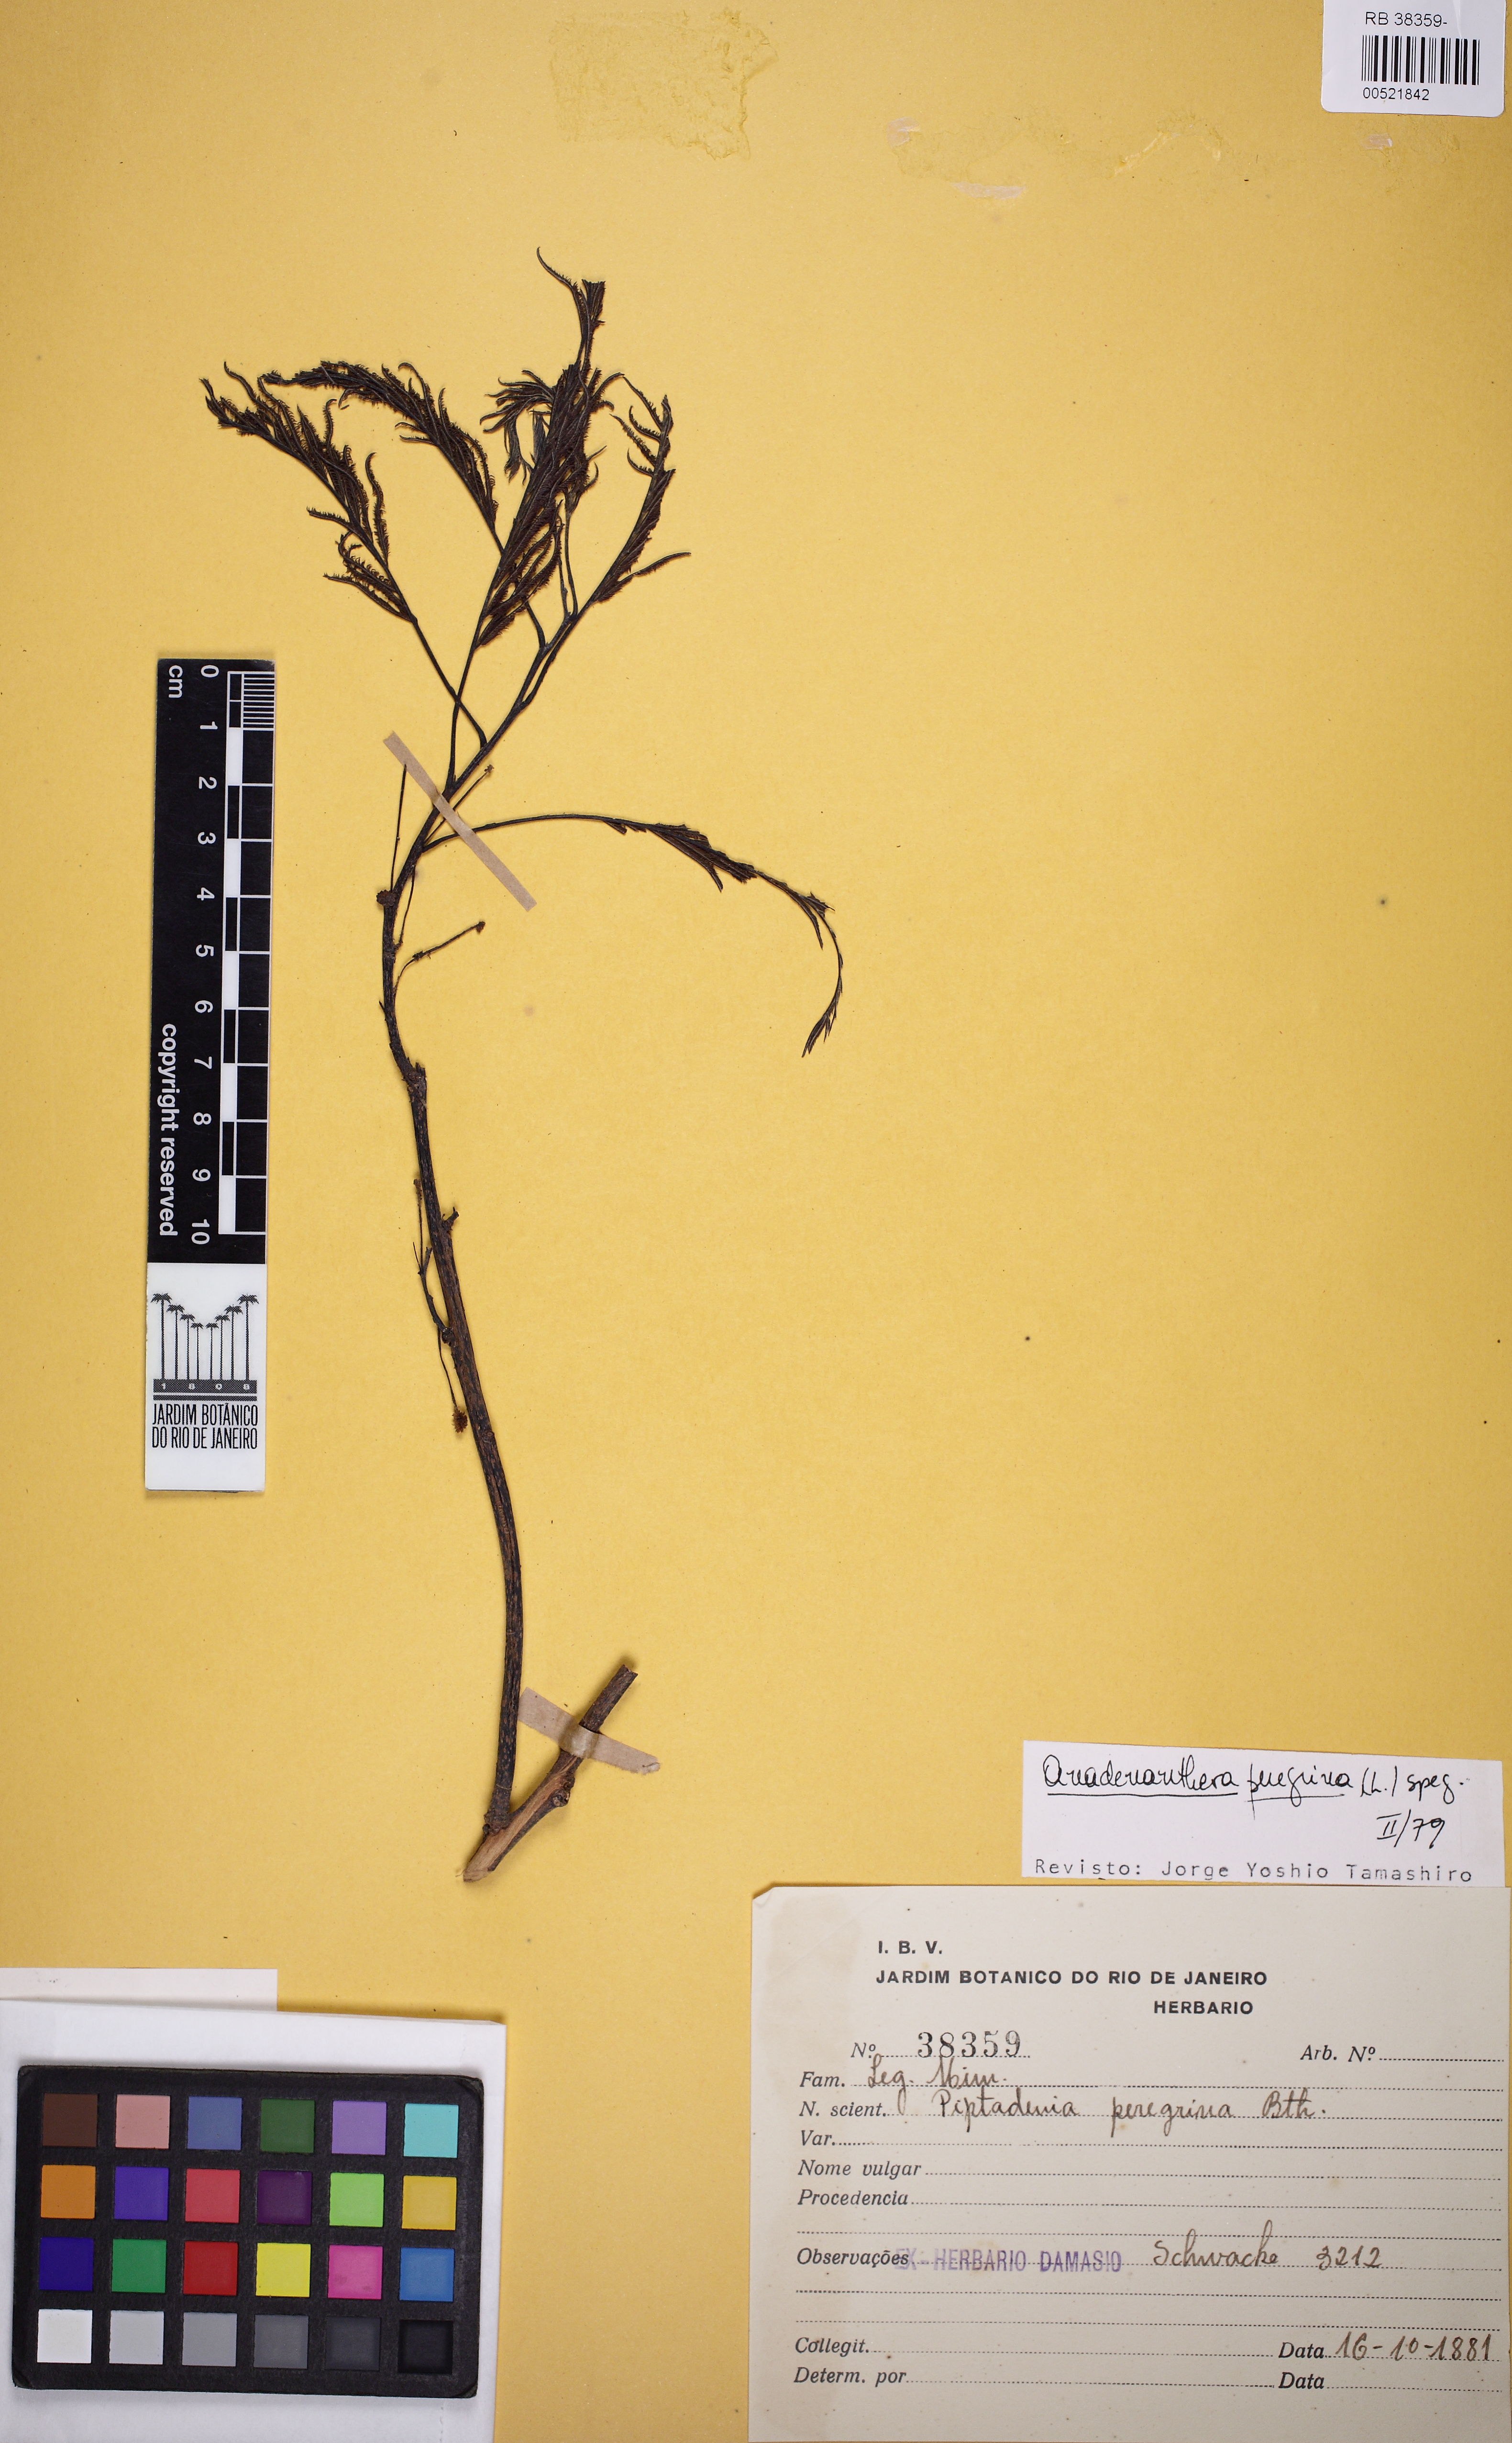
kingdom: Plantae
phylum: Tracheophyta
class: Magnoliopsida
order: Fabales
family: Fabaceae
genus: Anadenanthera
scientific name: Anadenanthera peregrina
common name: Cohoba
